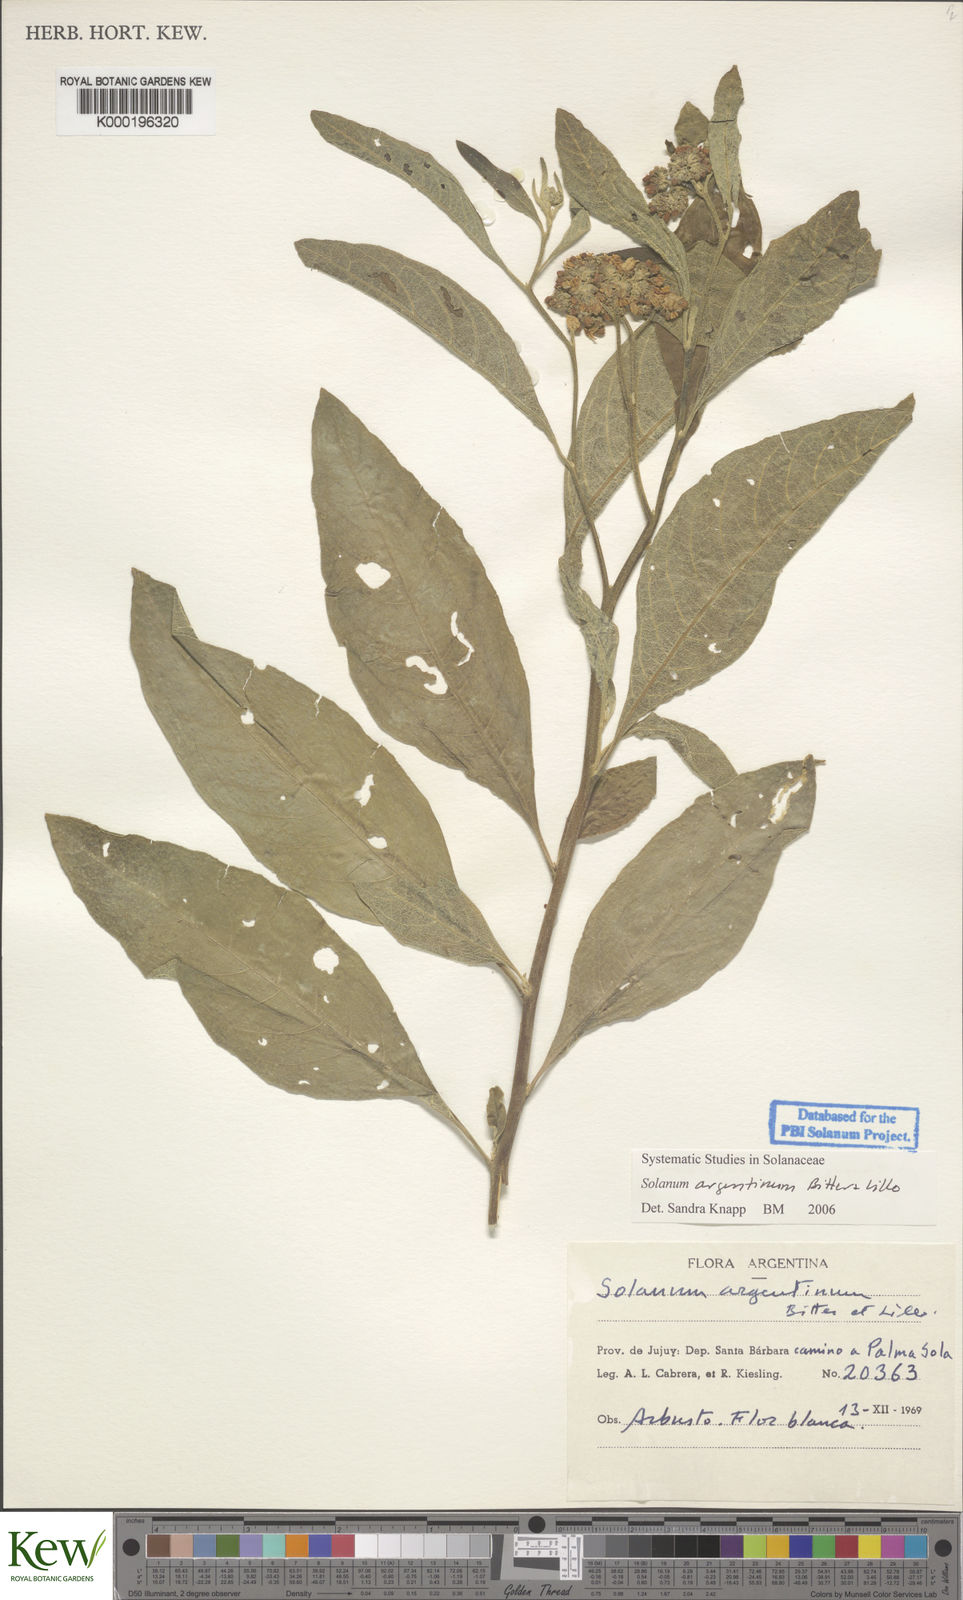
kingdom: Plantae
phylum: Tracheophyta
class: Magnoliopsida
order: Solanales
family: Solanaceae
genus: Solanum
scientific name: Solanum argentinum
